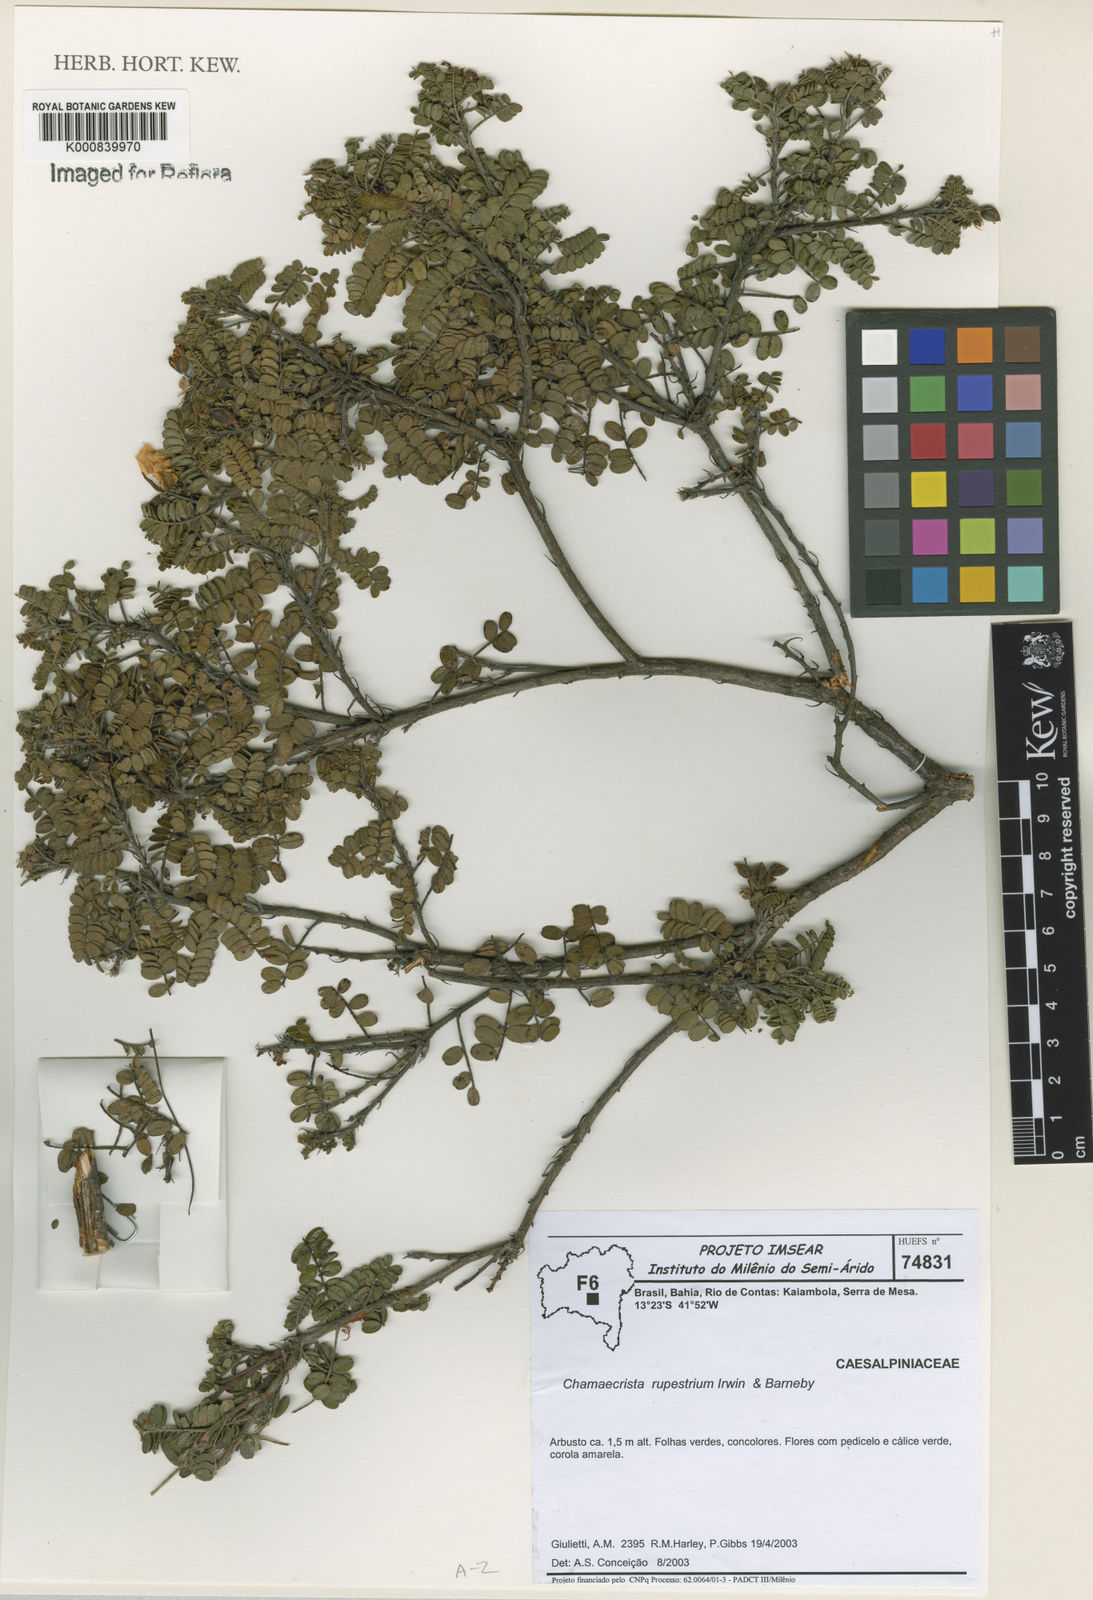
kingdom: Plantae
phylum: Tracheophyta
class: Magnoliopsida
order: Fabales
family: Fabaceae
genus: Chamaecrista
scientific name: Chamaecrista rupestrium
